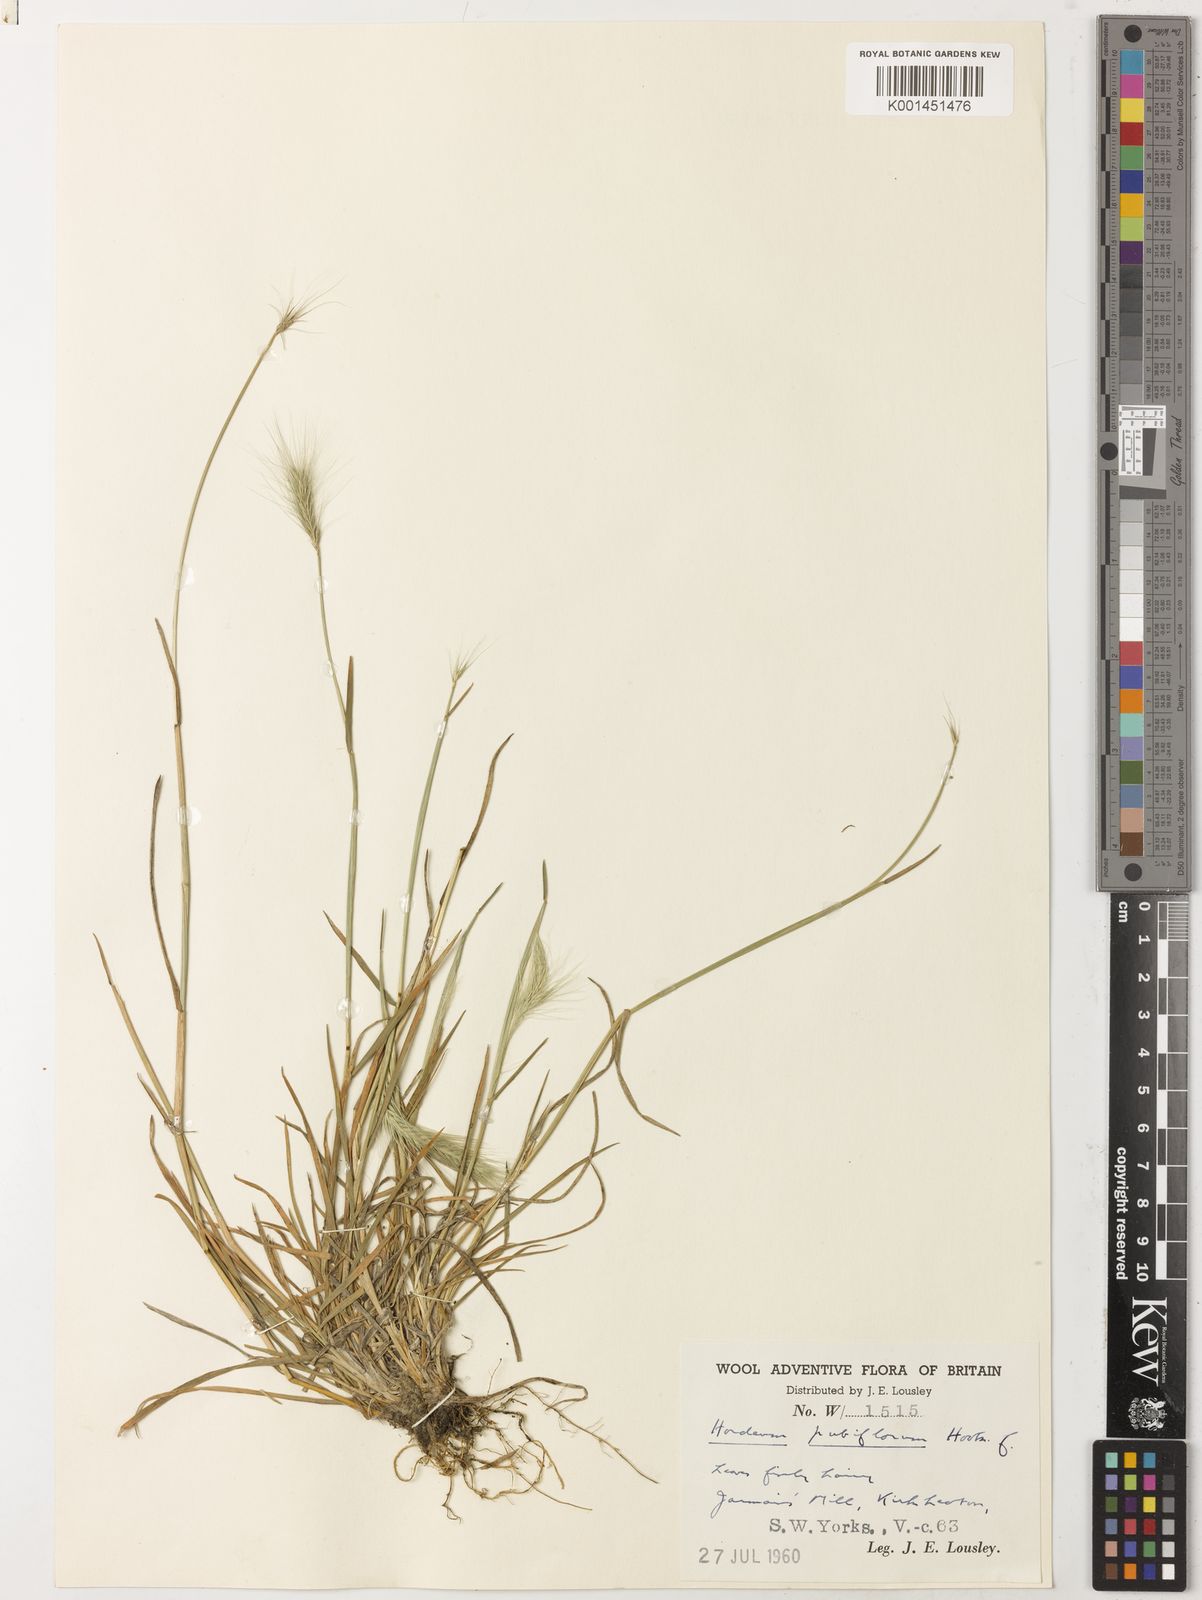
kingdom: Plantae
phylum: Tracheophyta
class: Liliopsida
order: Poales
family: Poaceae
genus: Hordeum
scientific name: Hordeum pubiflorum
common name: Antarctic barley
